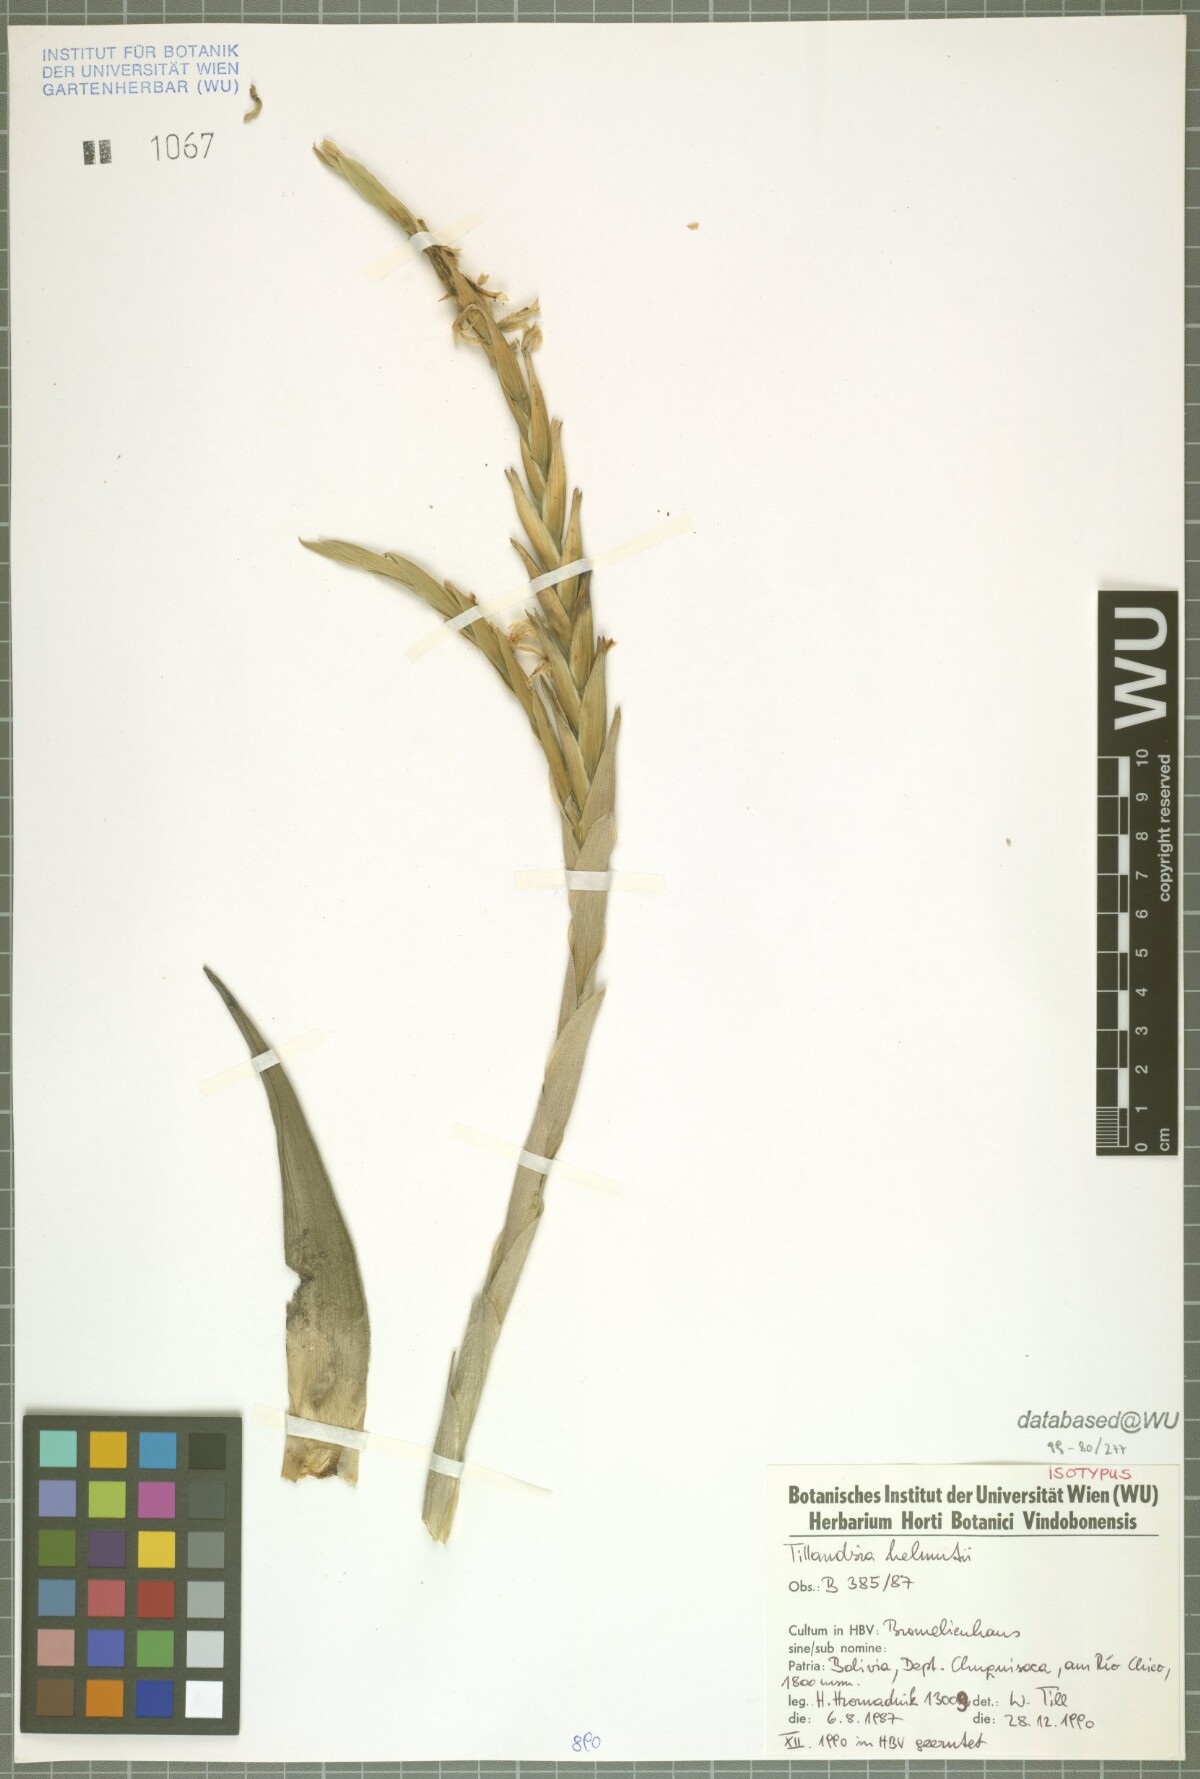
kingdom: Plantae
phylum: Tracheophyta
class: Liliopsida
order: Poales
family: Bromeliaceae
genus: Tillandsia
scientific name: Tillandsia helmutii
